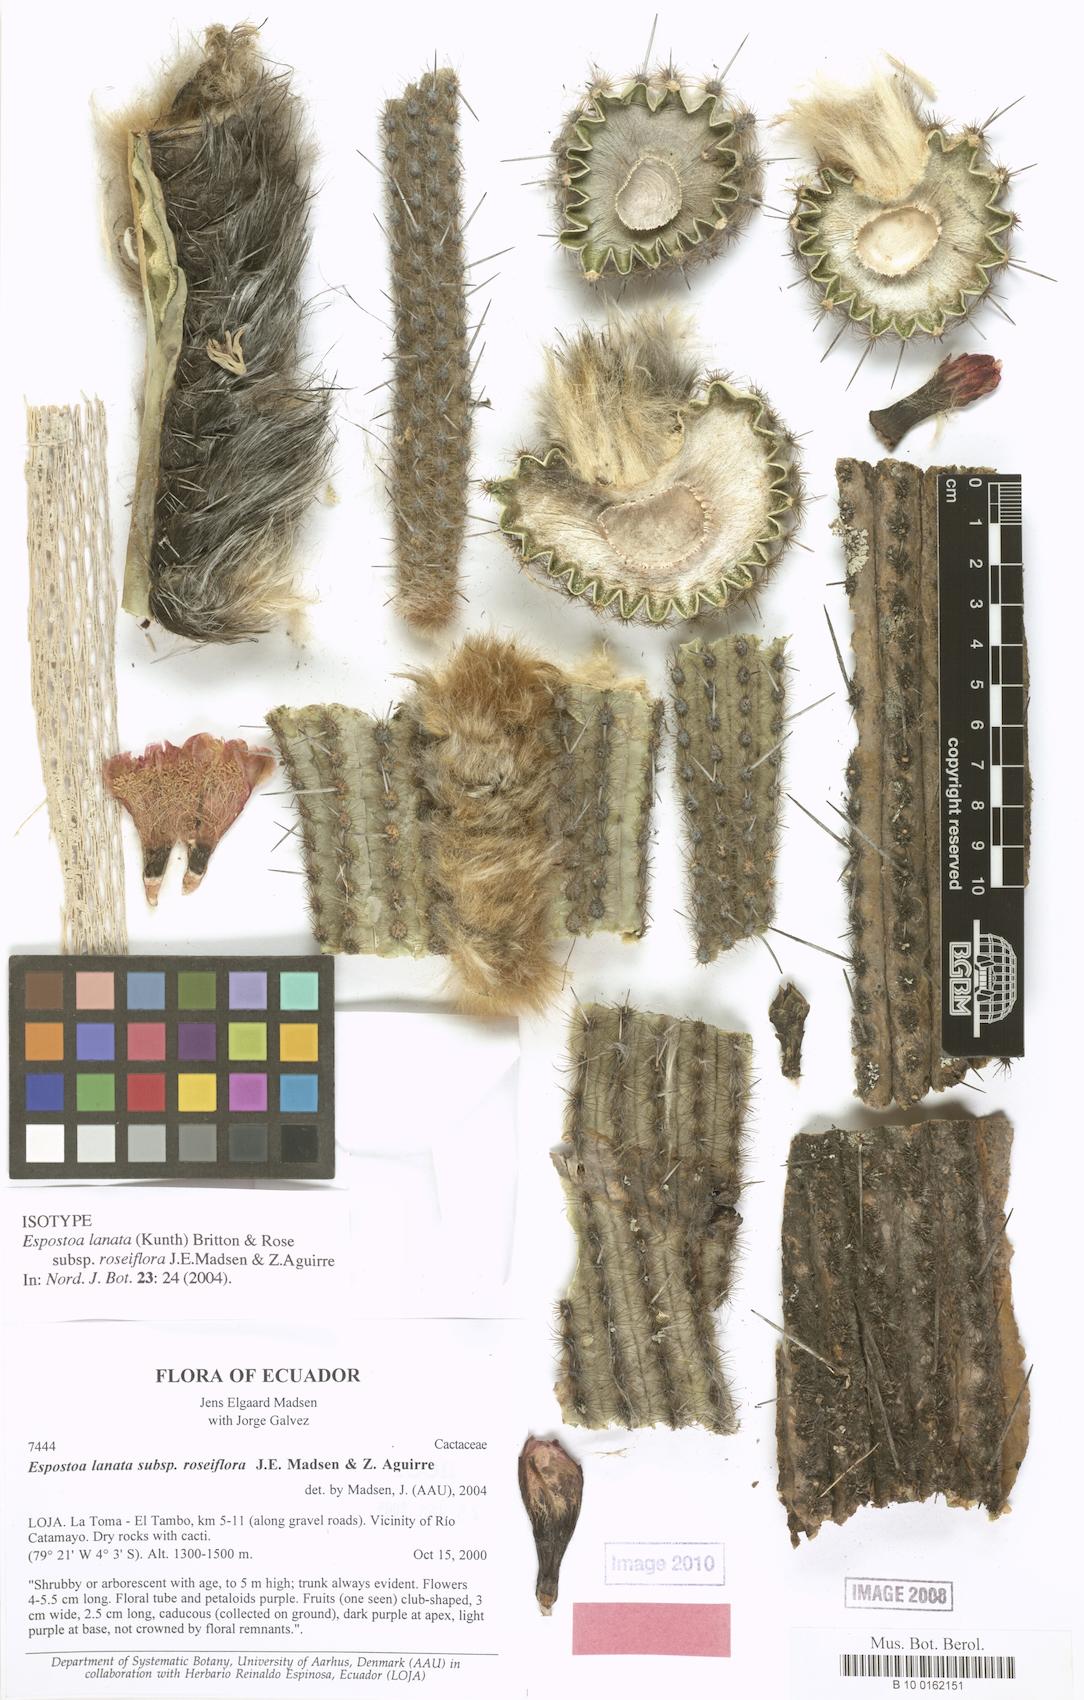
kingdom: Plantae
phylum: Tracheophyta
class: Magnoliopsida
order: Caryophyllales
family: Cactaceae
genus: Espostoa
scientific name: Espostoa lanata
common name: Snowball cactus
